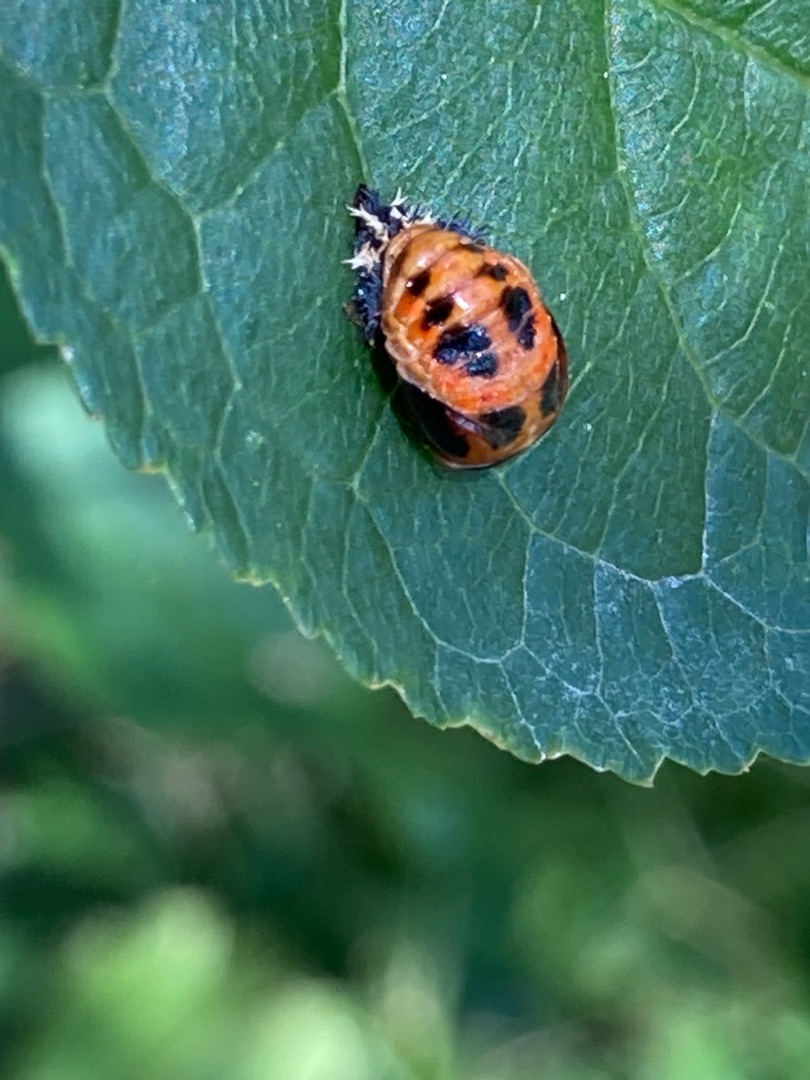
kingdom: Animalia
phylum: Arthropoda
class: Insecta
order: Coleoptera
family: Coccinellidae
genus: Harmonia
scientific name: Harmonia axyridis
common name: Harlekinmariehøne
